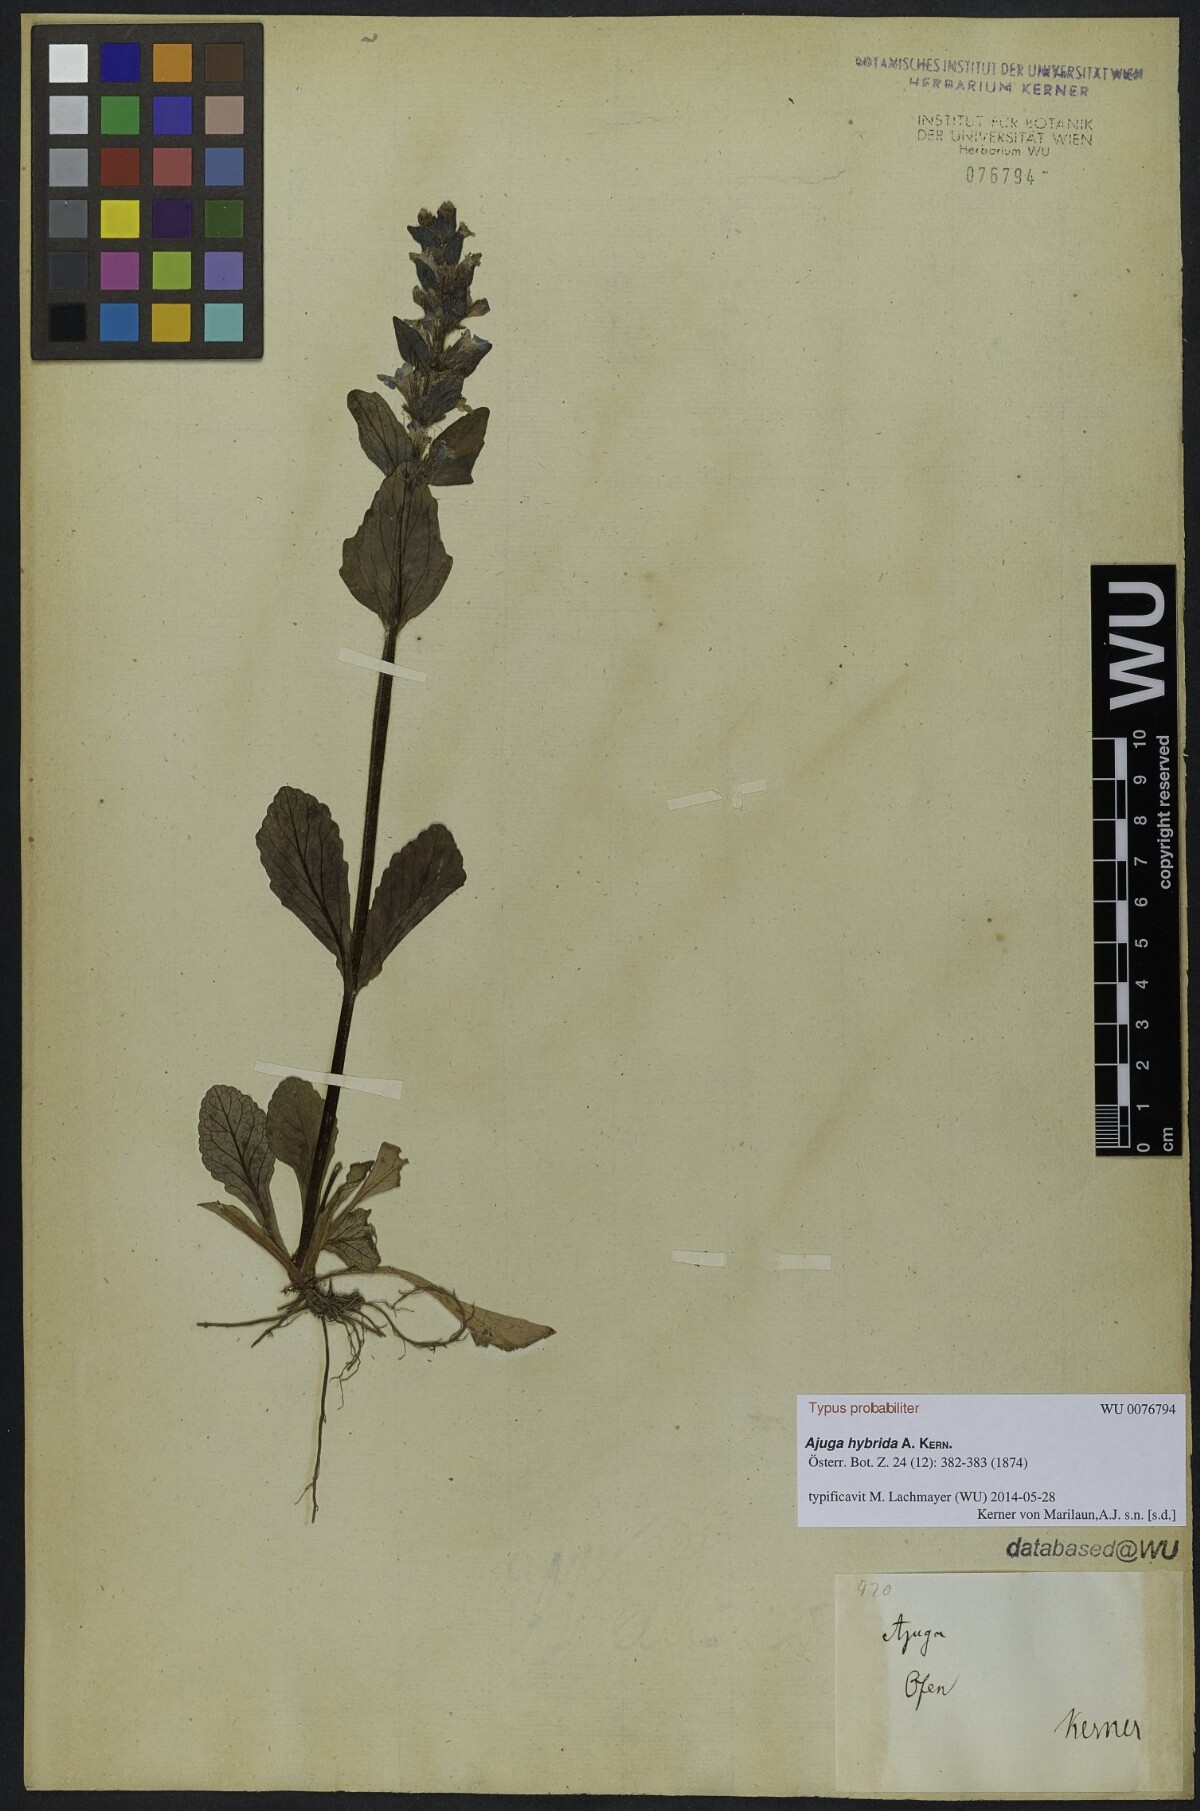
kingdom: Plantae
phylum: Tracheophyta
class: Magnoliopsida
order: Lamiales
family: Lamiaceae
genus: Ajuga
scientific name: Ajuga hybrida
